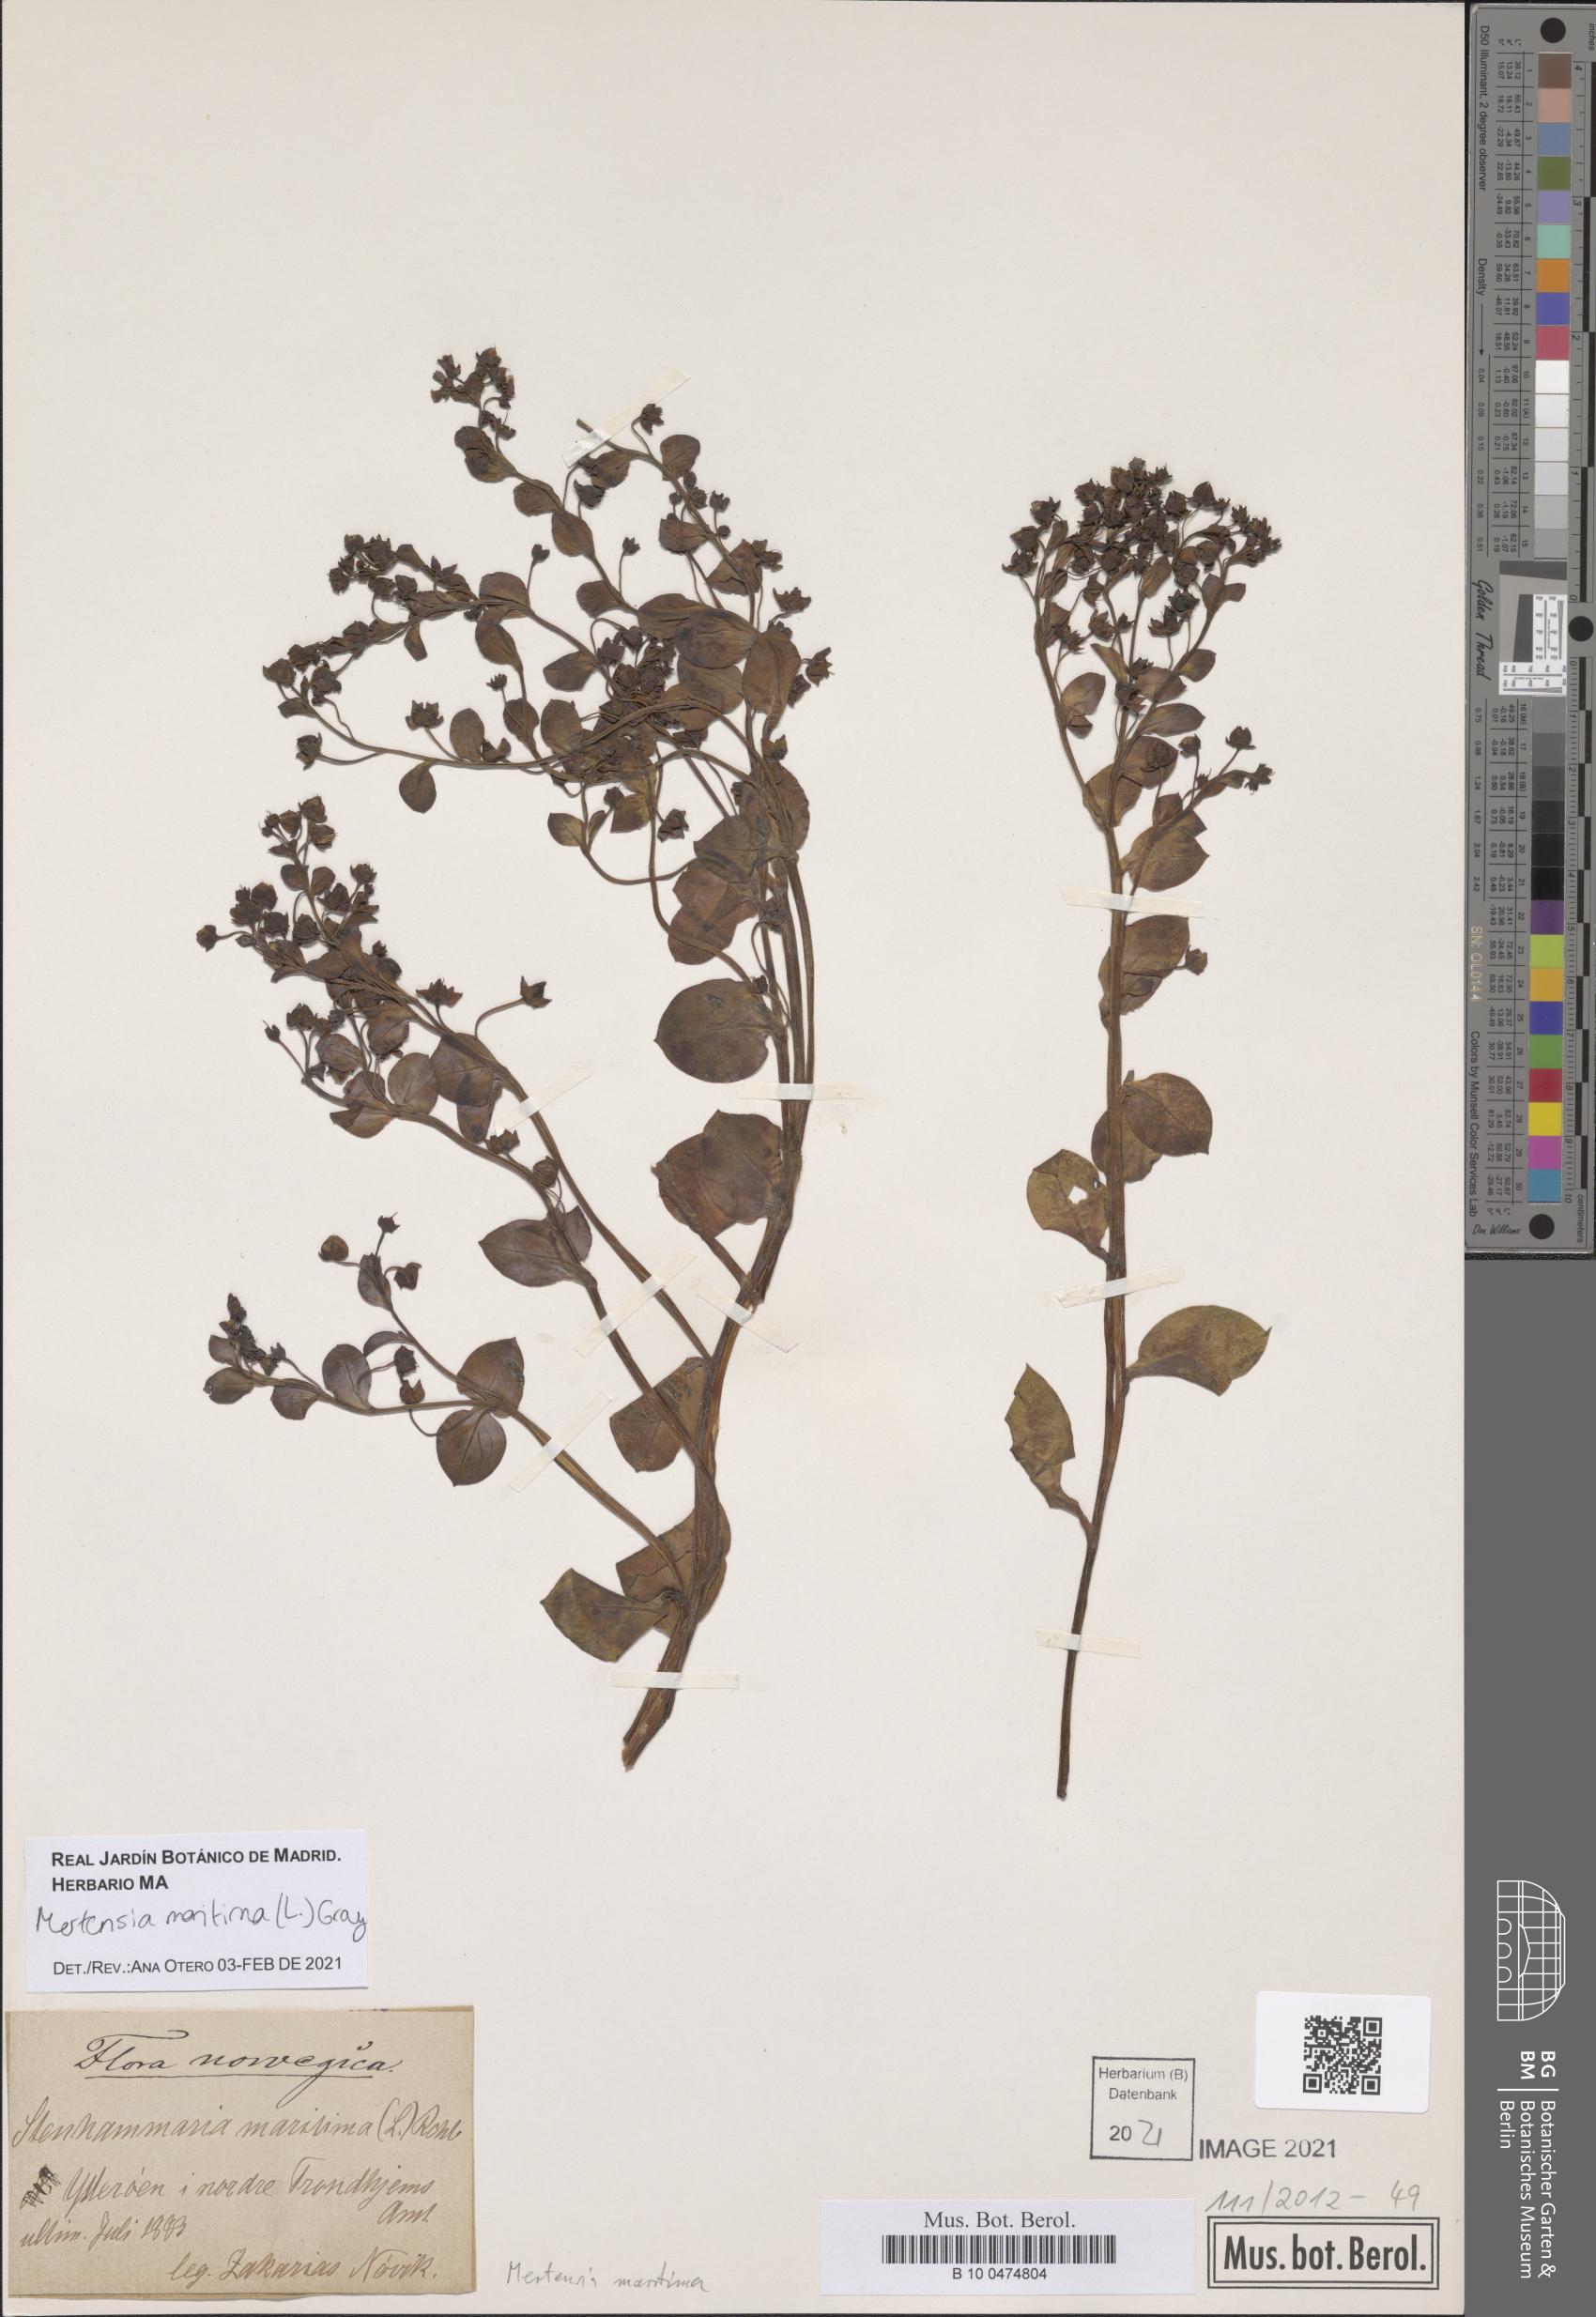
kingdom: Plantae
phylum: Tracheophyta
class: Magnoliopsida
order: Boraginales
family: Boraginaceae
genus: Mertensia
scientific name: Mertensia maritima
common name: Oysterplant
